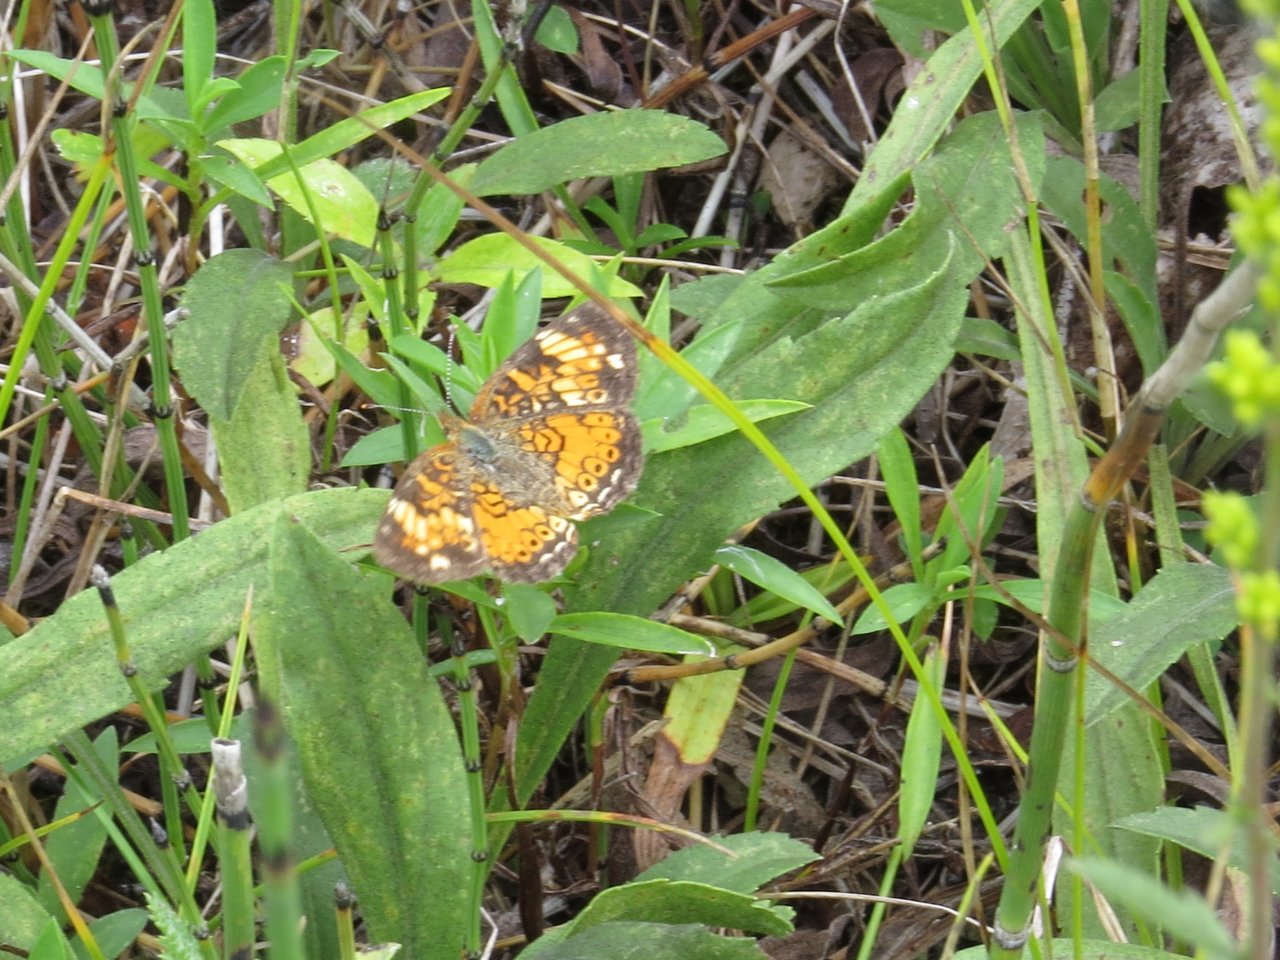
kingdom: Animalia
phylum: Arthropoda
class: Insecta
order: Lepidoptera
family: Nymphalidae
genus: Phyciodes
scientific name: Phyciodes tharos
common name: Pearl Crescent
